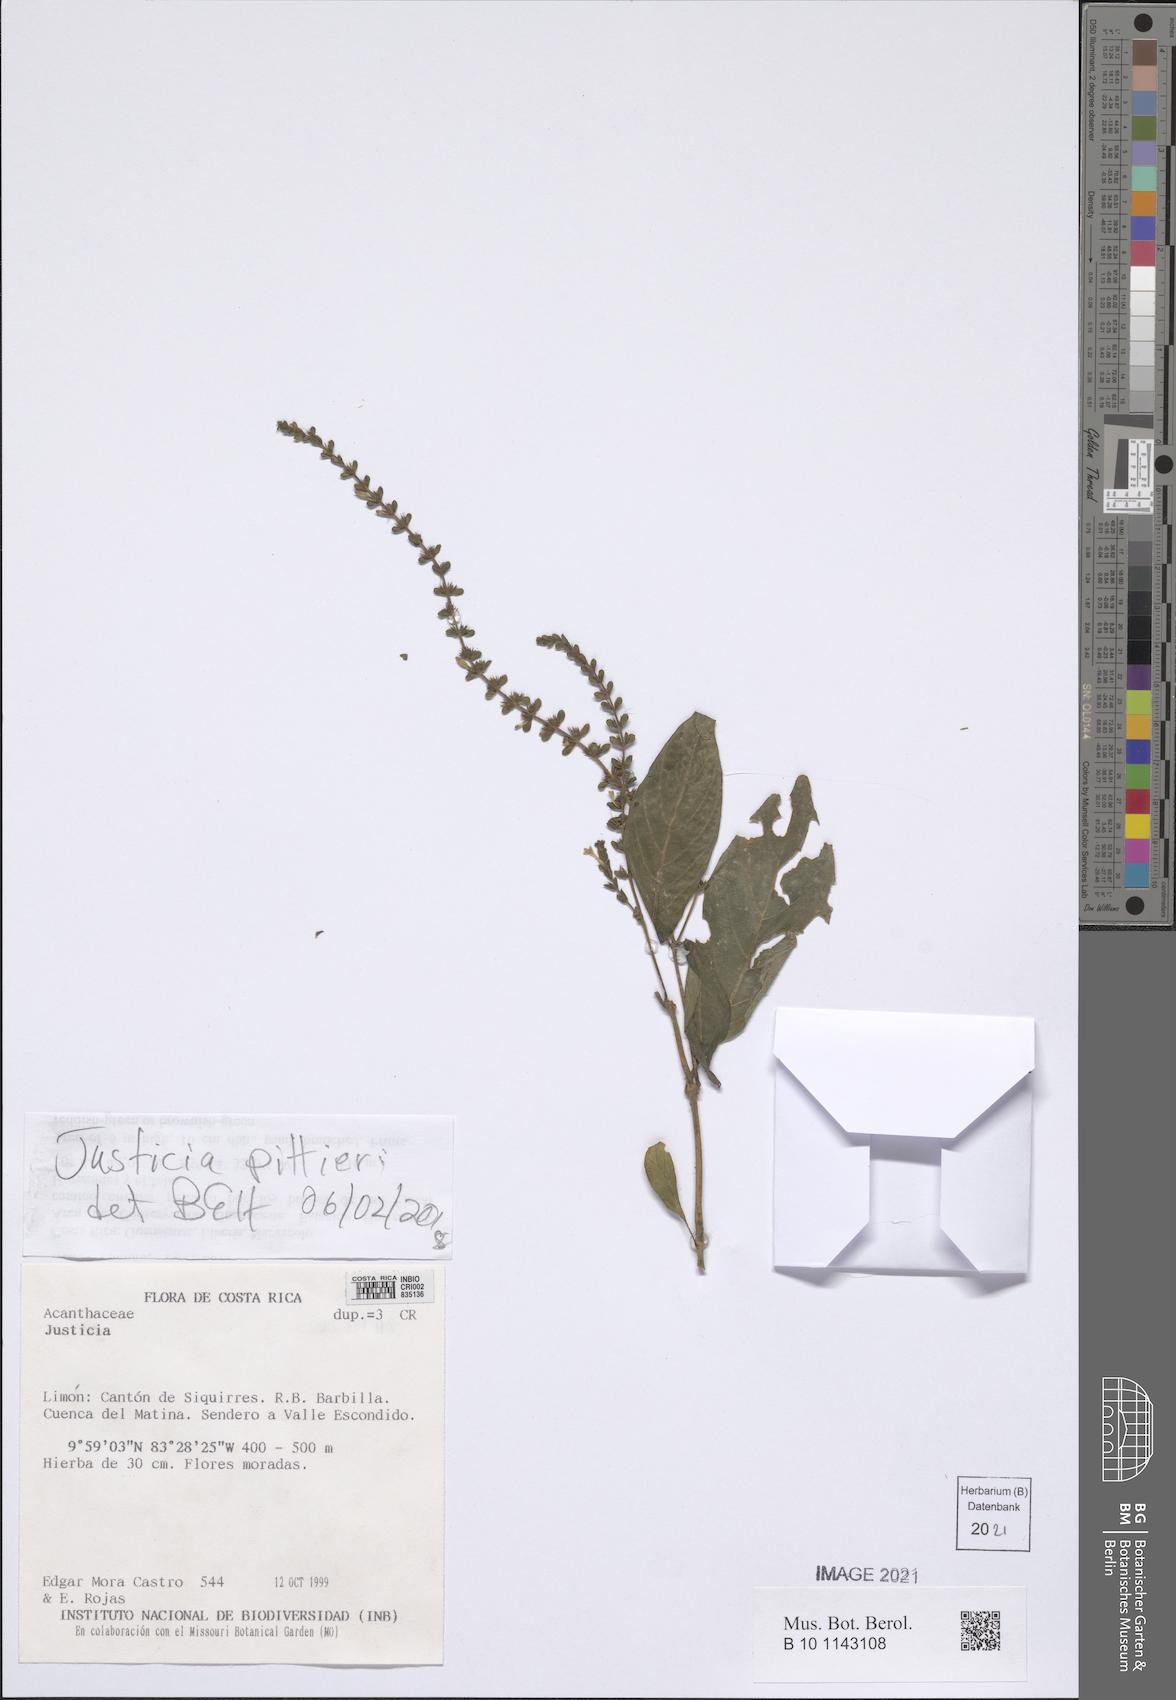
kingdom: Plantae
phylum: Tracheophyta
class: Magnoliopsida
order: Lamiales
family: Acanthaceae
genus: Justicia
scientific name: Justicia pittieri
